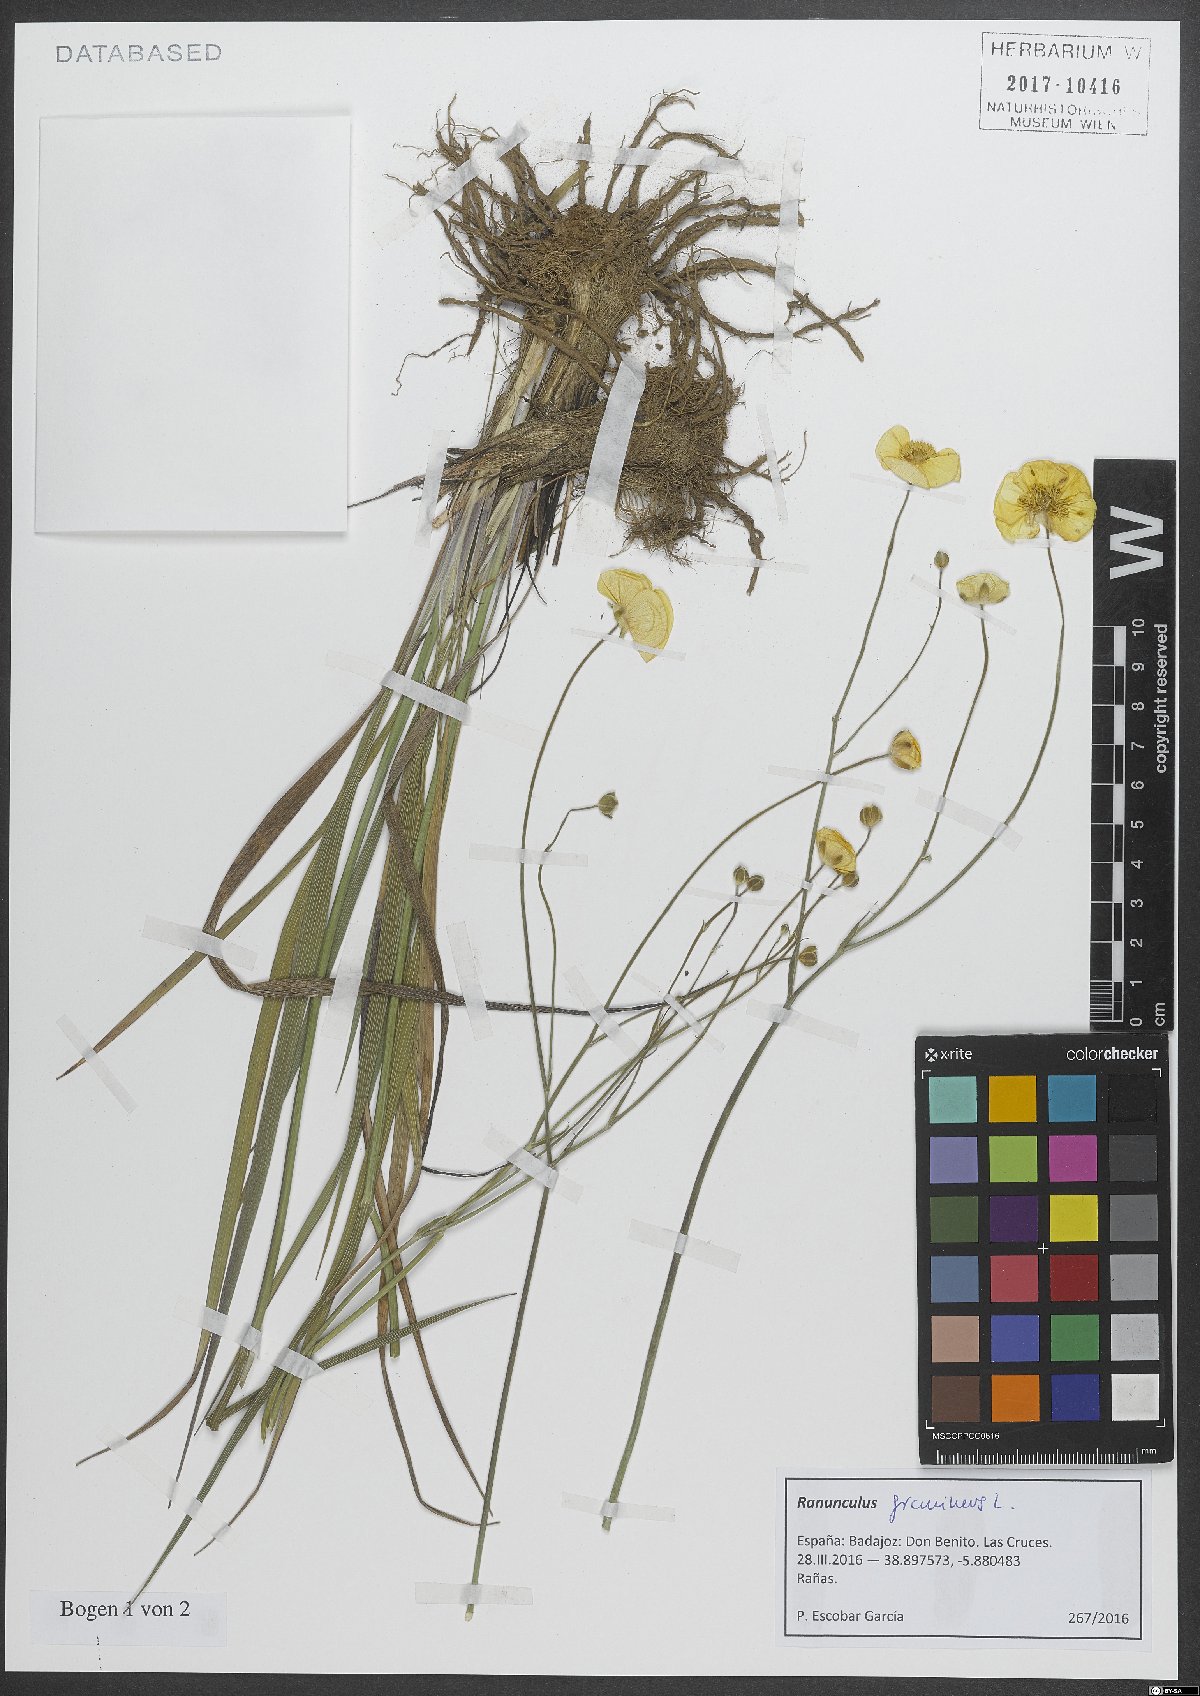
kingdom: Plantae
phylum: Tracheophyta
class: Magnoliopsida
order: Ranunculales
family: Ranunculaceae
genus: Ranunculus
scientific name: Ranunculus gramineus
